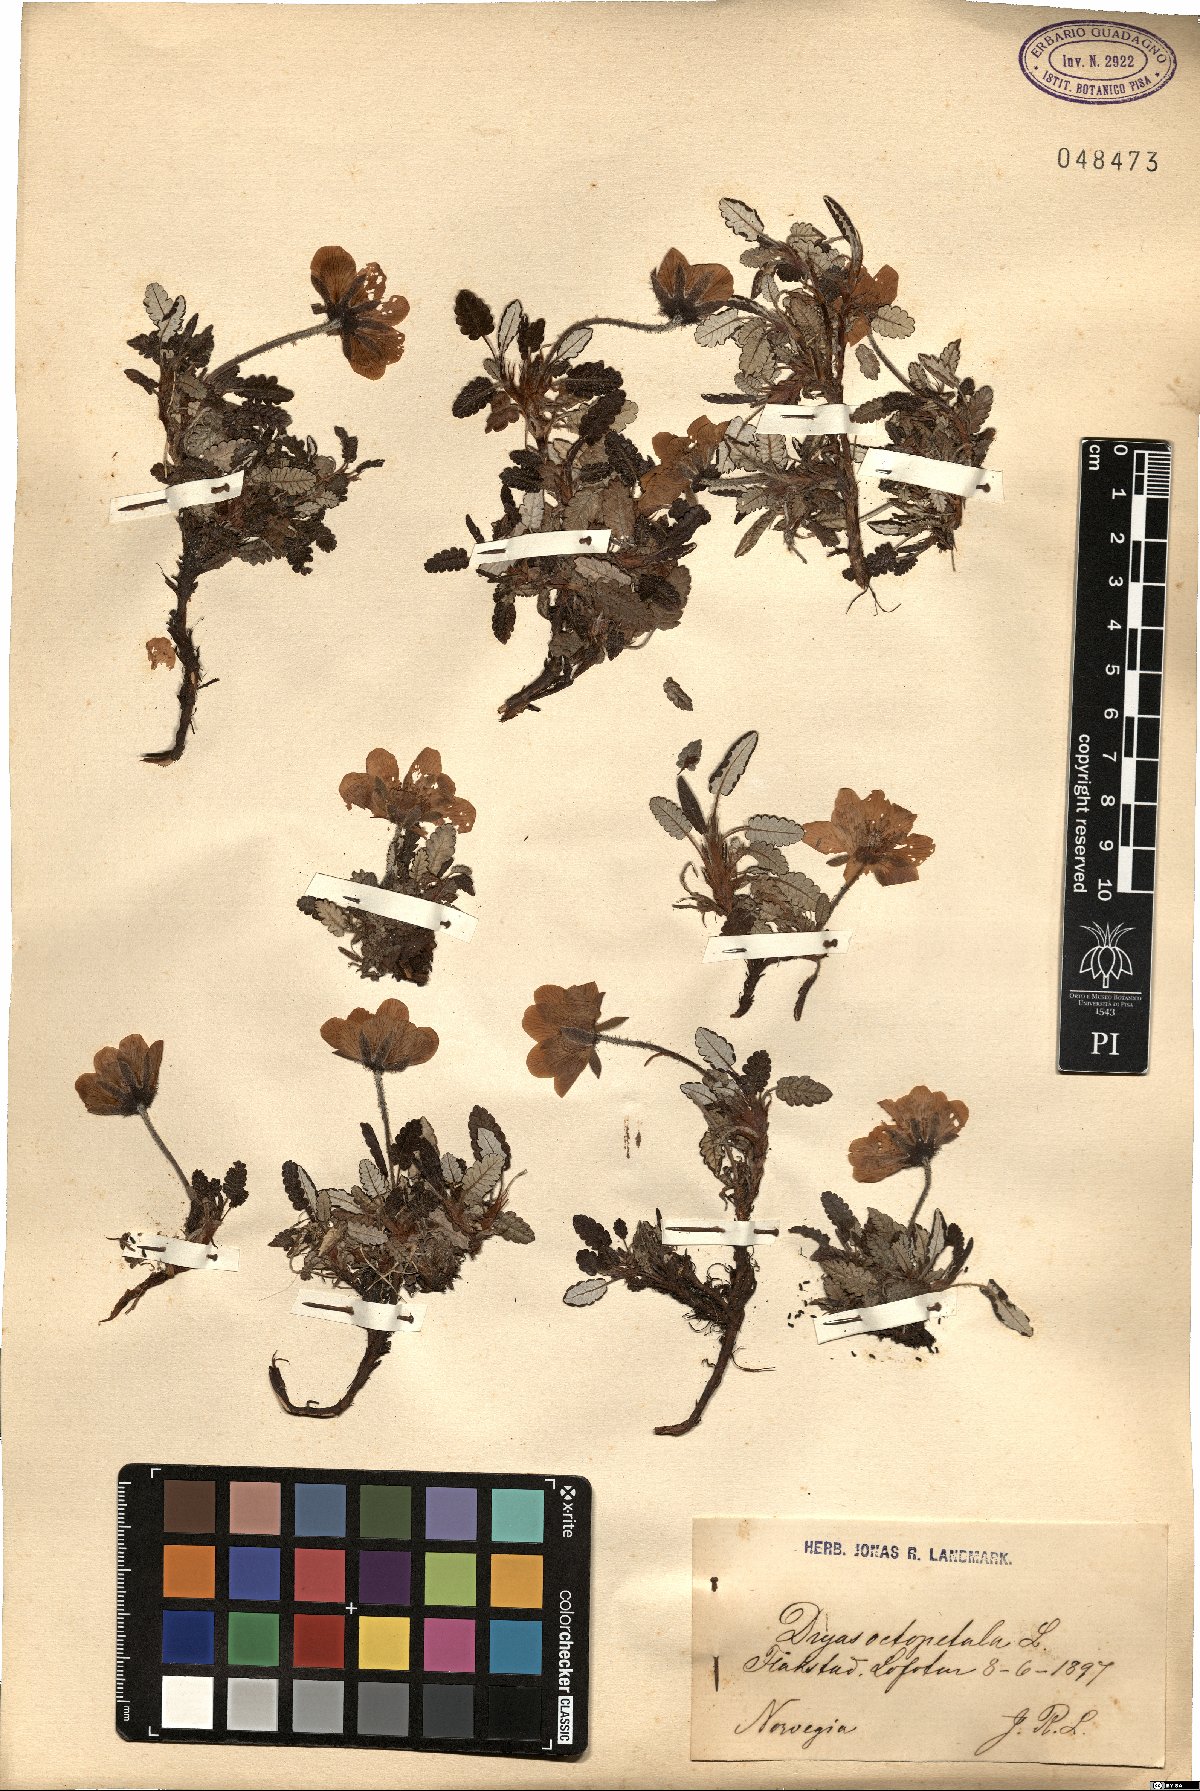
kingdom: Plantae
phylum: Tracheophyta
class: Magnoliopsida
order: Rosales
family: Rosaceae
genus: Dryas
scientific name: Dryas octopetala
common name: Eight-petal mountain-avens
